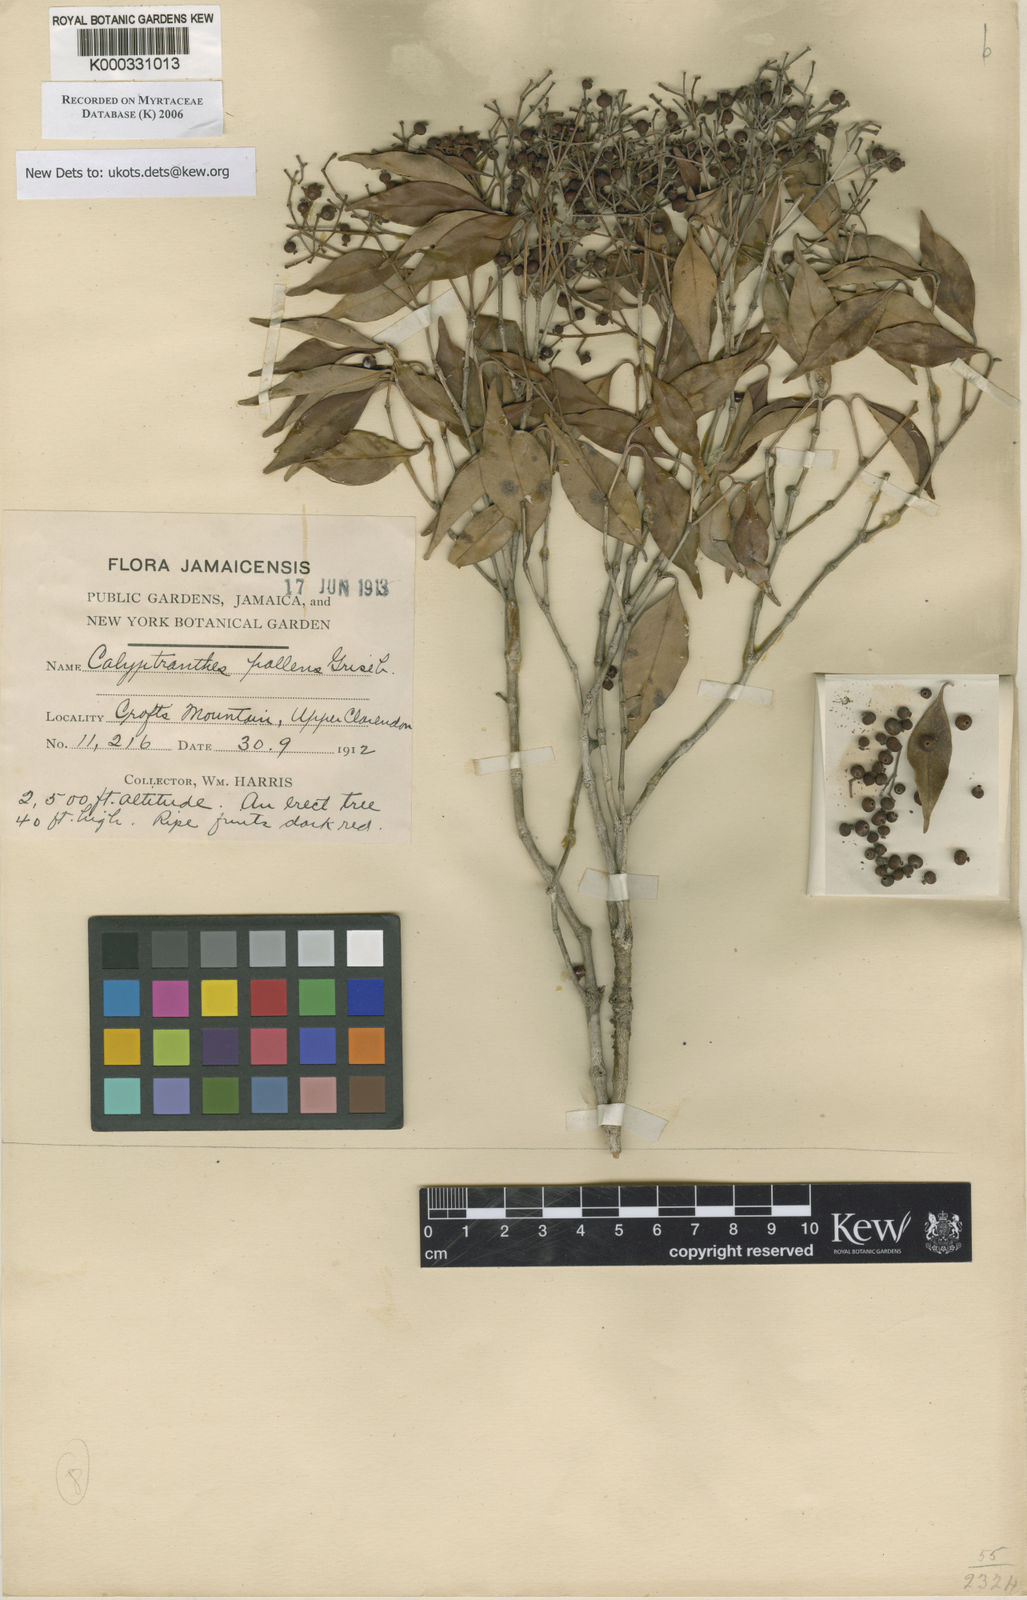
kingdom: Plantae
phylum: Tracheophyta
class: Magnoliopsida
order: Myrtales
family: Myrtaceae
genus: Myrcia
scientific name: Myrcia neopallens
